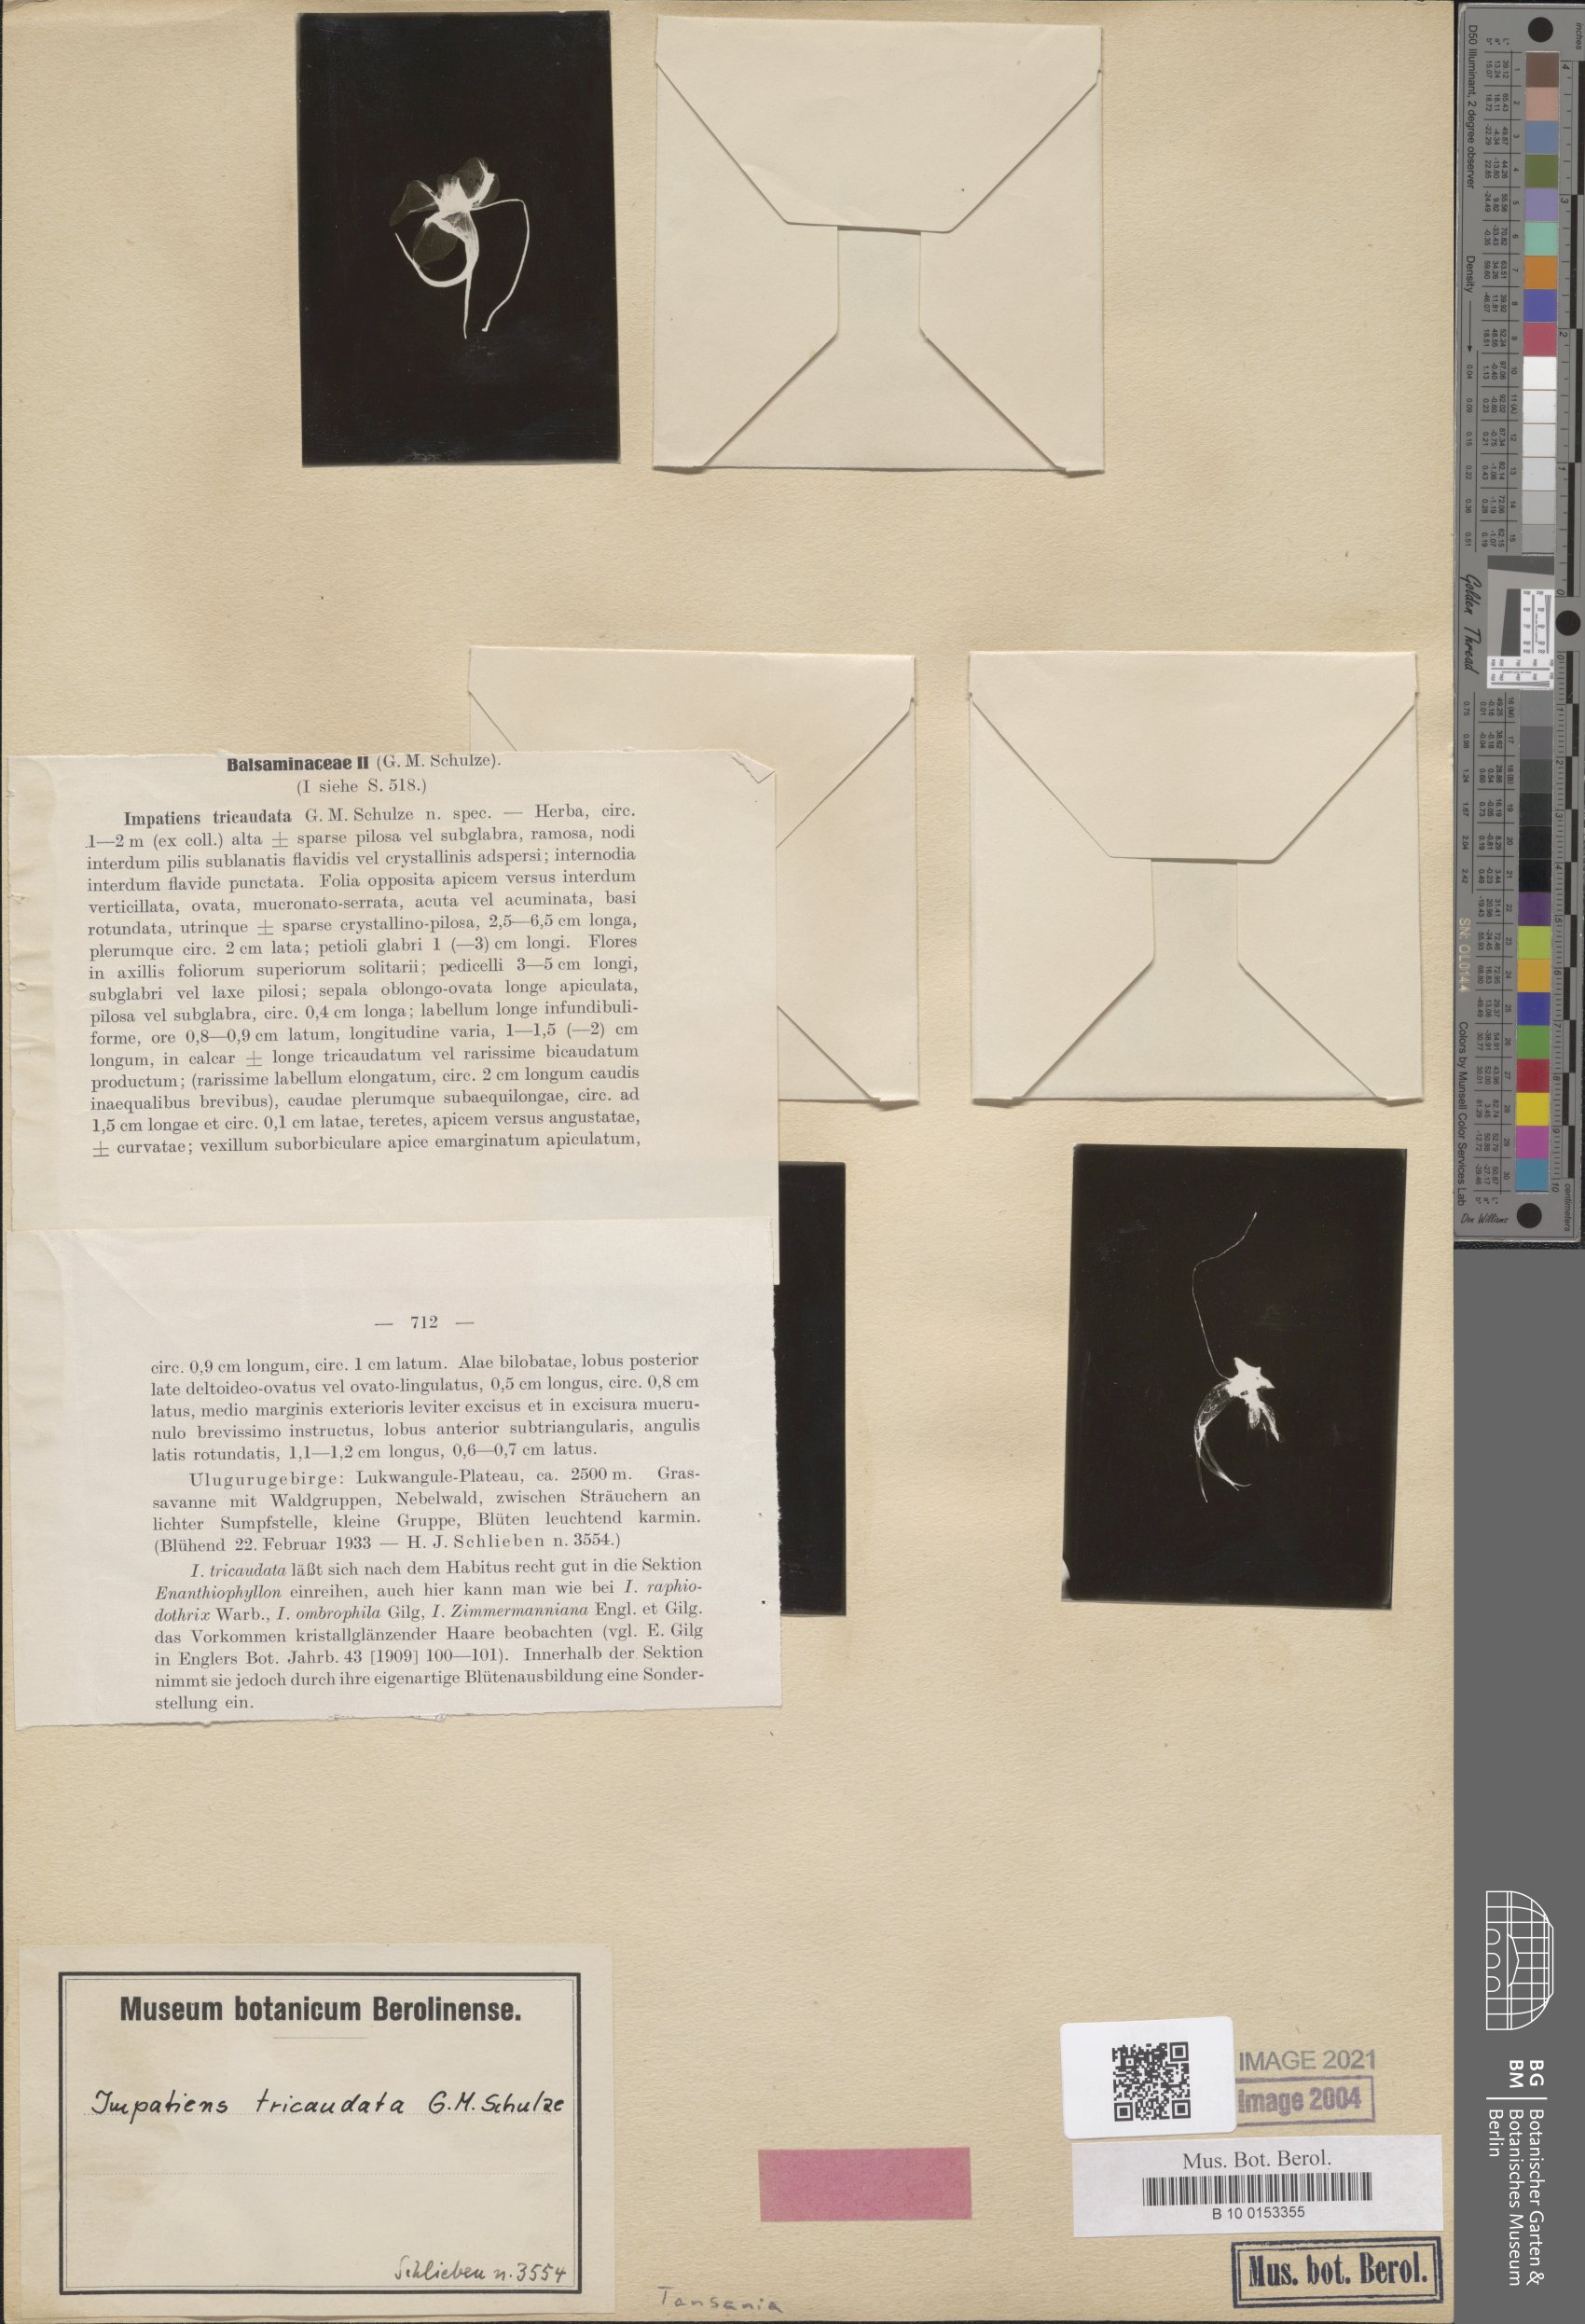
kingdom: Plantae
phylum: Tracheophyta
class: Magnoliopsida
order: Ericales
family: Balsaminaceae
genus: Impatiens
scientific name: Impatiens tricaudata
